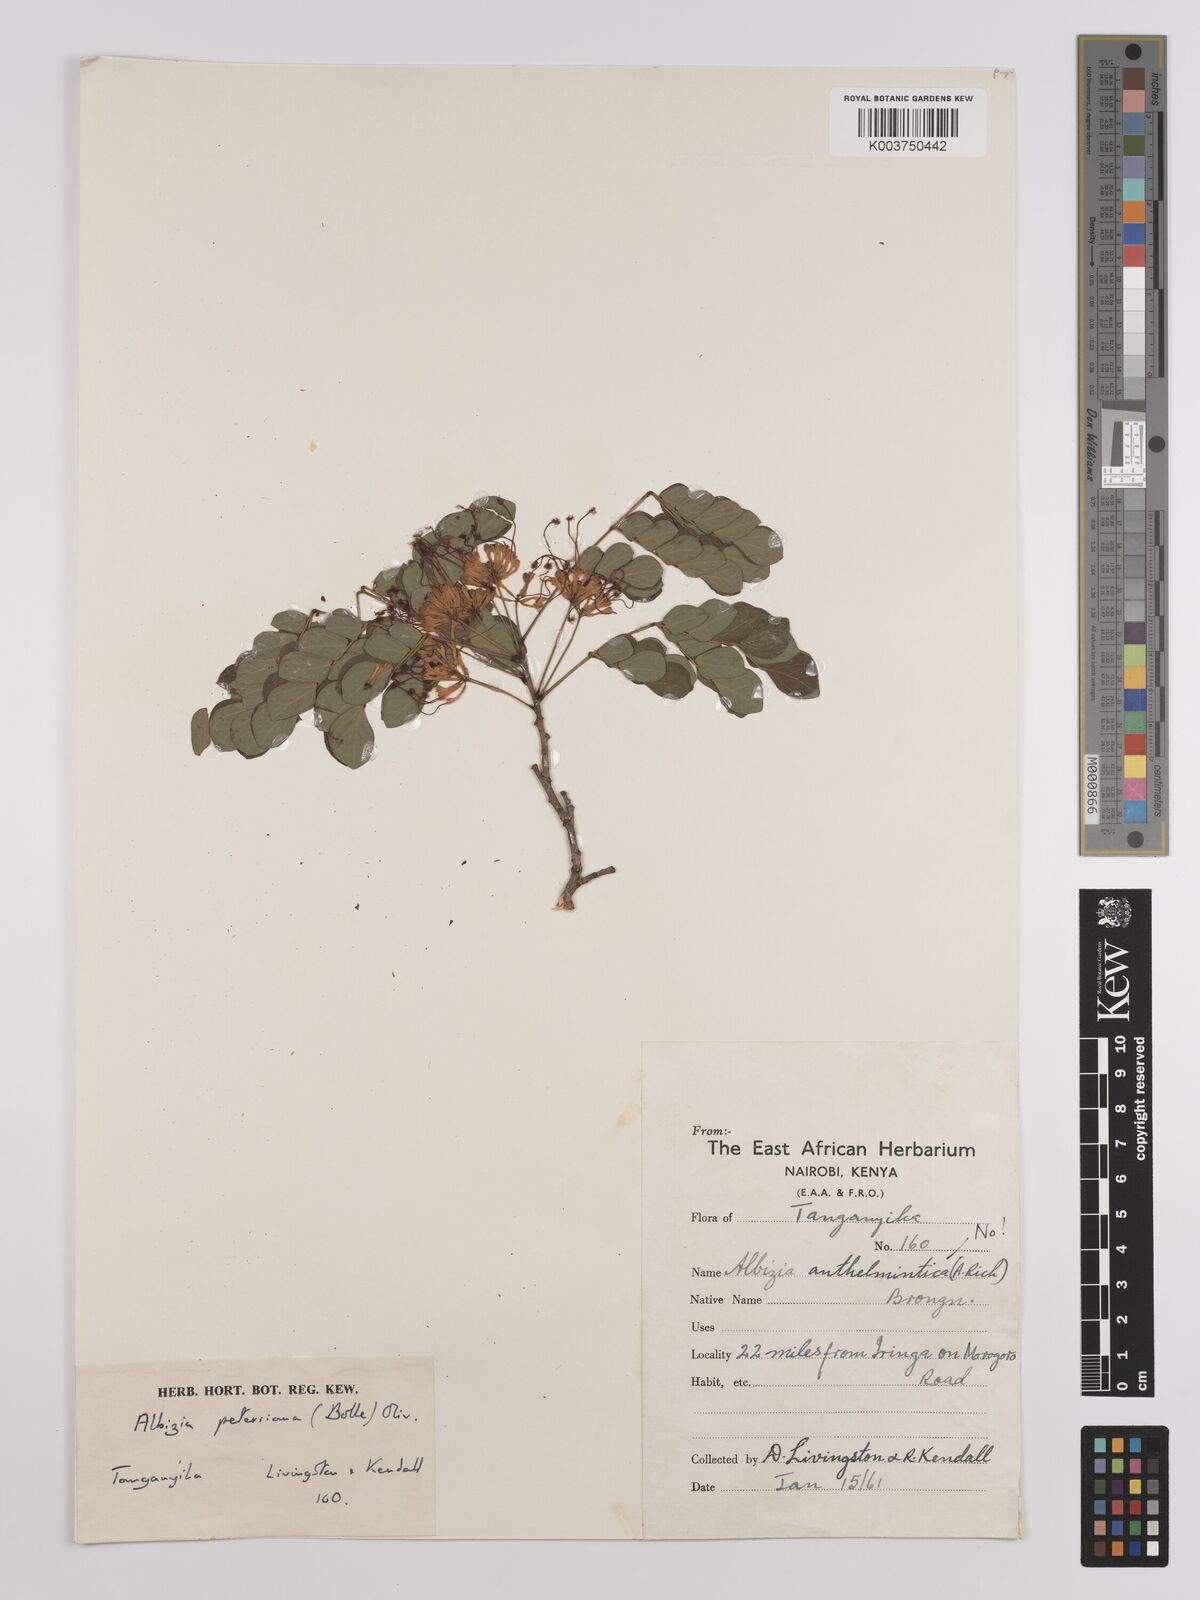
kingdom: Plantae
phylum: Tracheophyta
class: Magnoliopsida
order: Fabales
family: Fabaceae
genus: Albizia
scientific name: Albizia petersiana
